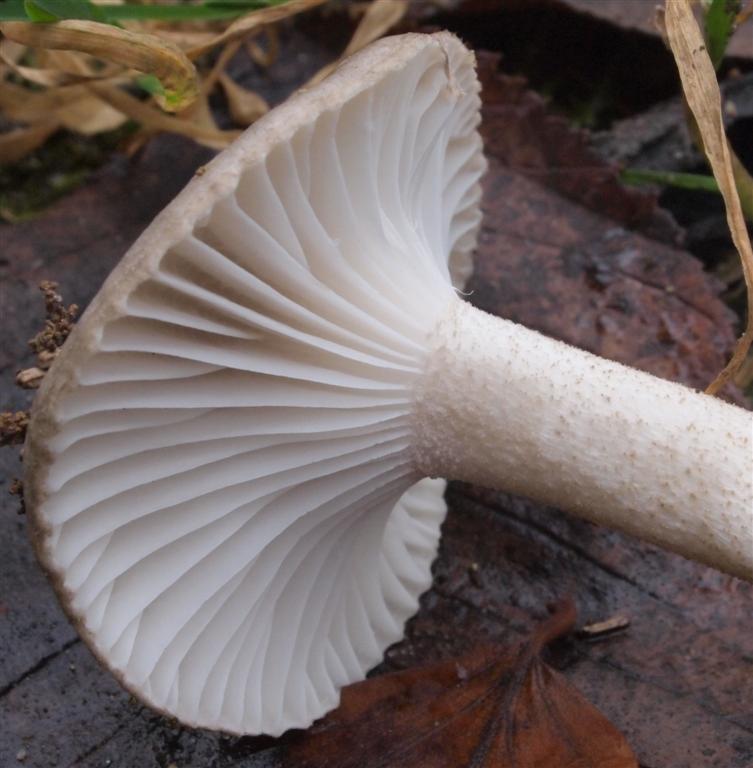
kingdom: Fungi
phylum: Basidiomycota
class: Agaricomycetes
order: Agaricales
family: Hygrophoraceae
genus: Hygrophorus
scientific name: Hygrophorus pustulatus
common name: mørkprikket sneglehat
